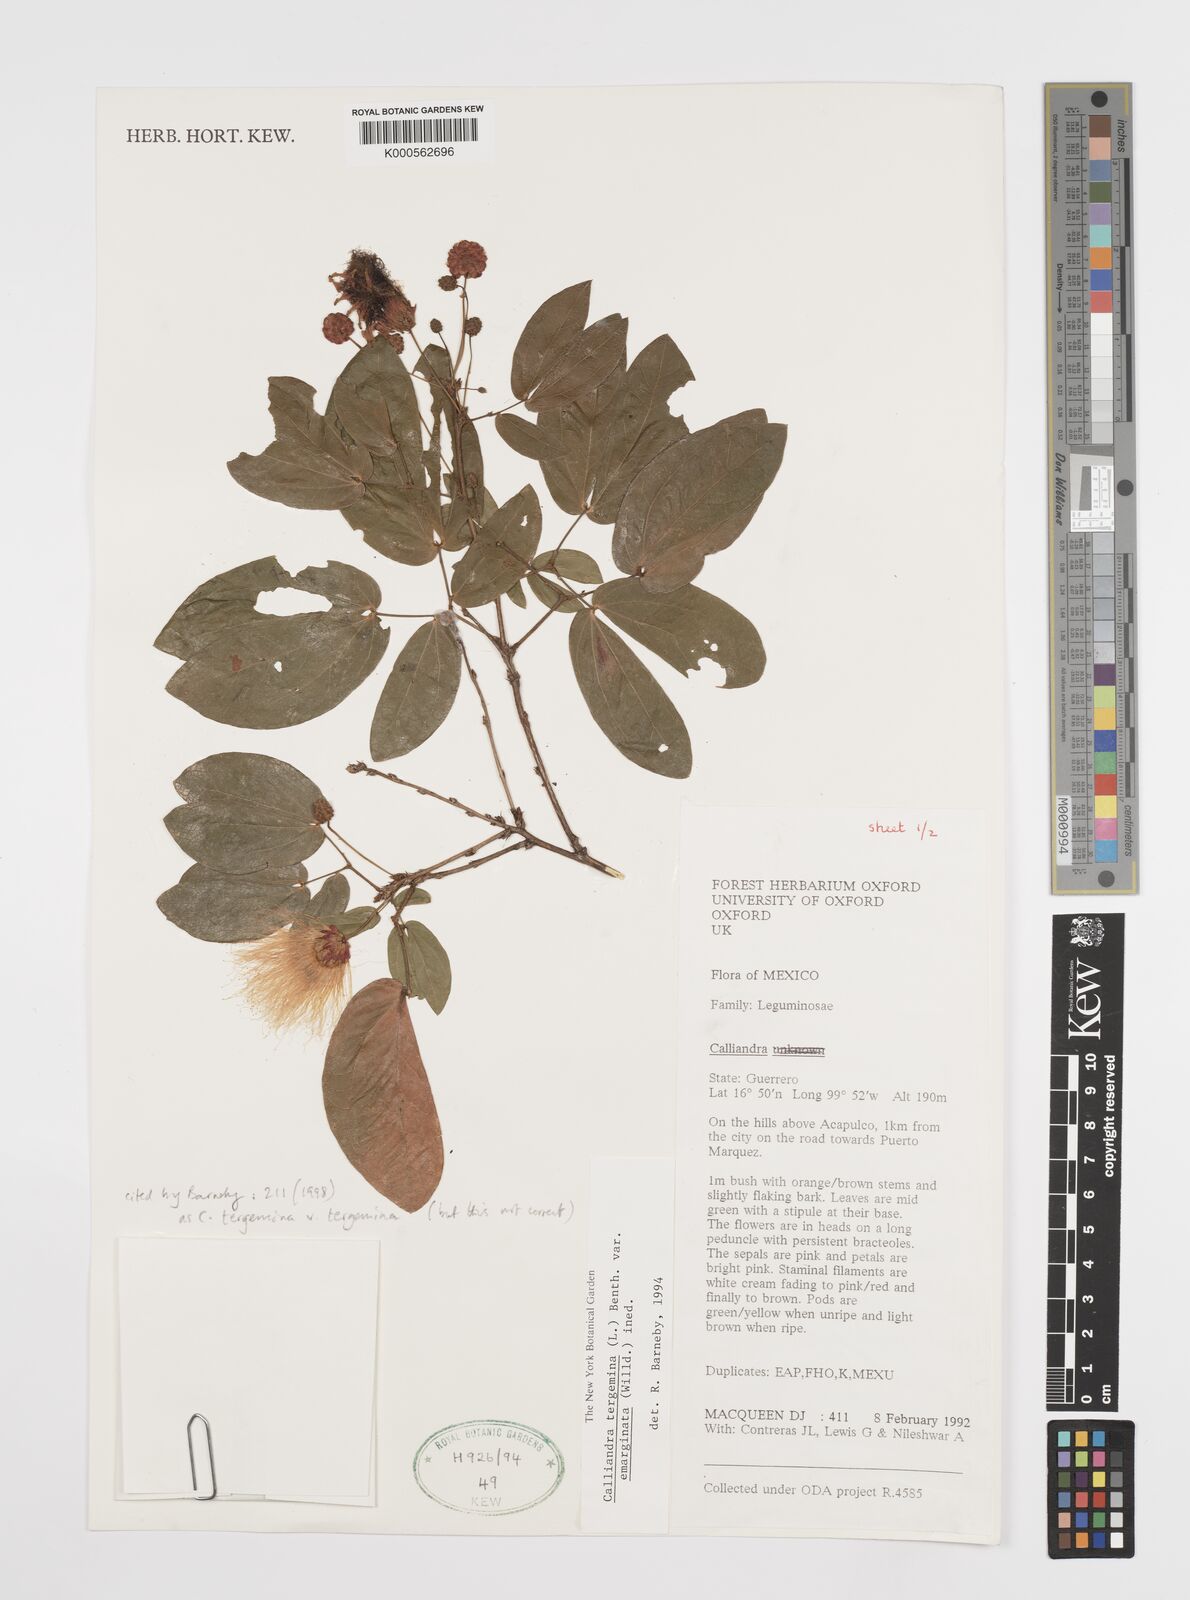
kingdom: Plantae
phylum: Tracheophyta
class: Magnoliopsida
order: Fabales
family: Fabaceae
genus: Calliandra
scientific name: Calliandra tergemina
